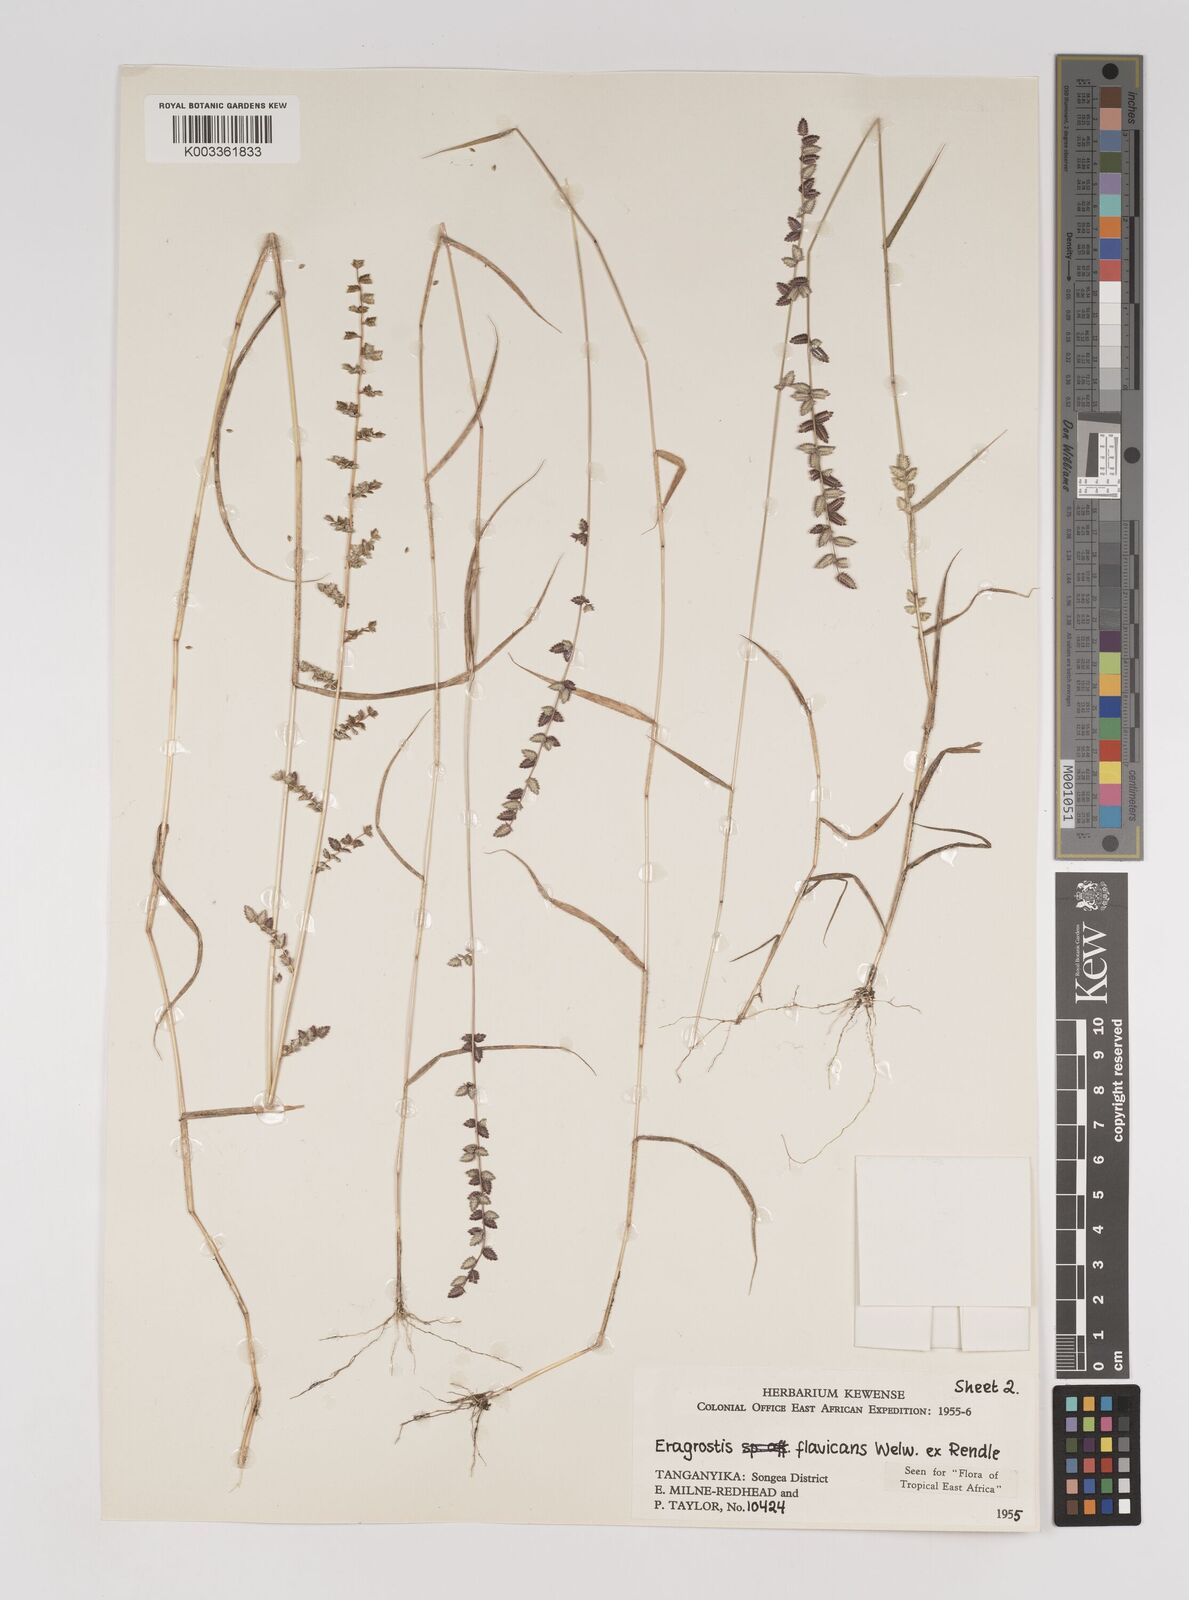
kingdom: Plantae
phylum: Tracheophyta
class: Liliopsida
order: Poales
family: Poaceae
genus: Eragrostis
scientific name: Eragrostis flavicans
